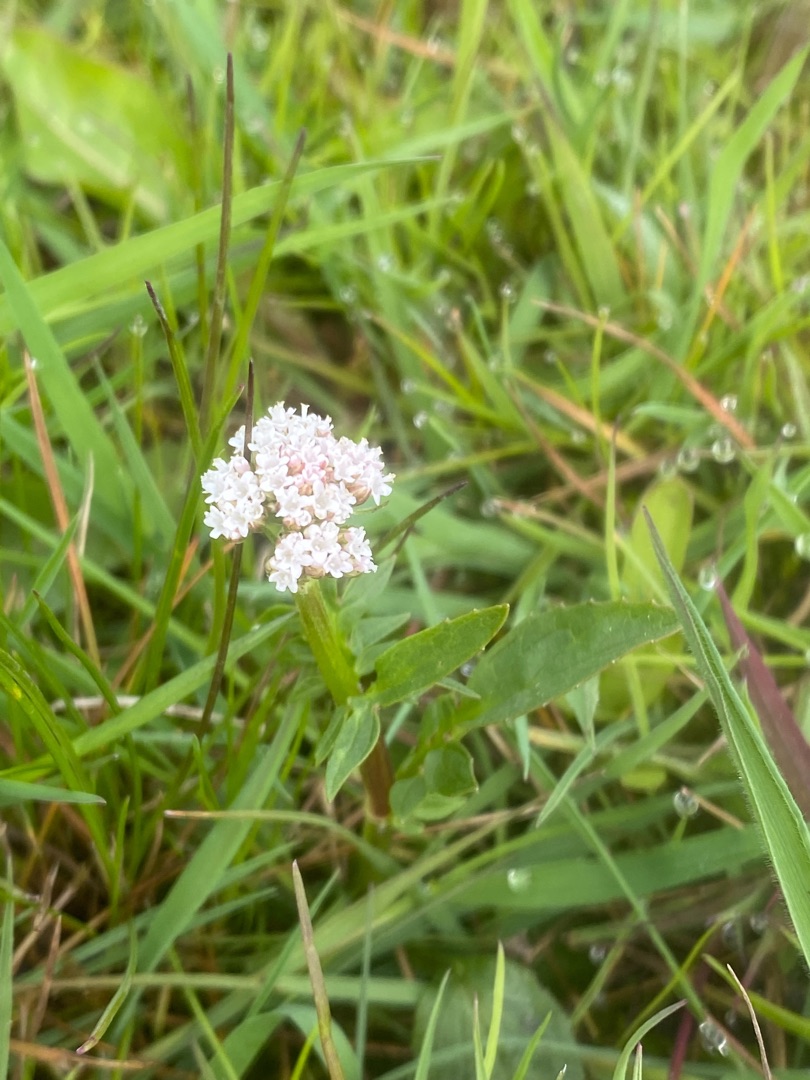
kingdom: Plantae
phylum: Tracheophyta
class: Magnoliopsida
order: Dipsacales
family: Caprifoliaceae
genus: Valeriana
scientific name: Valeriana dioica
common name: Tvebo baldrian
